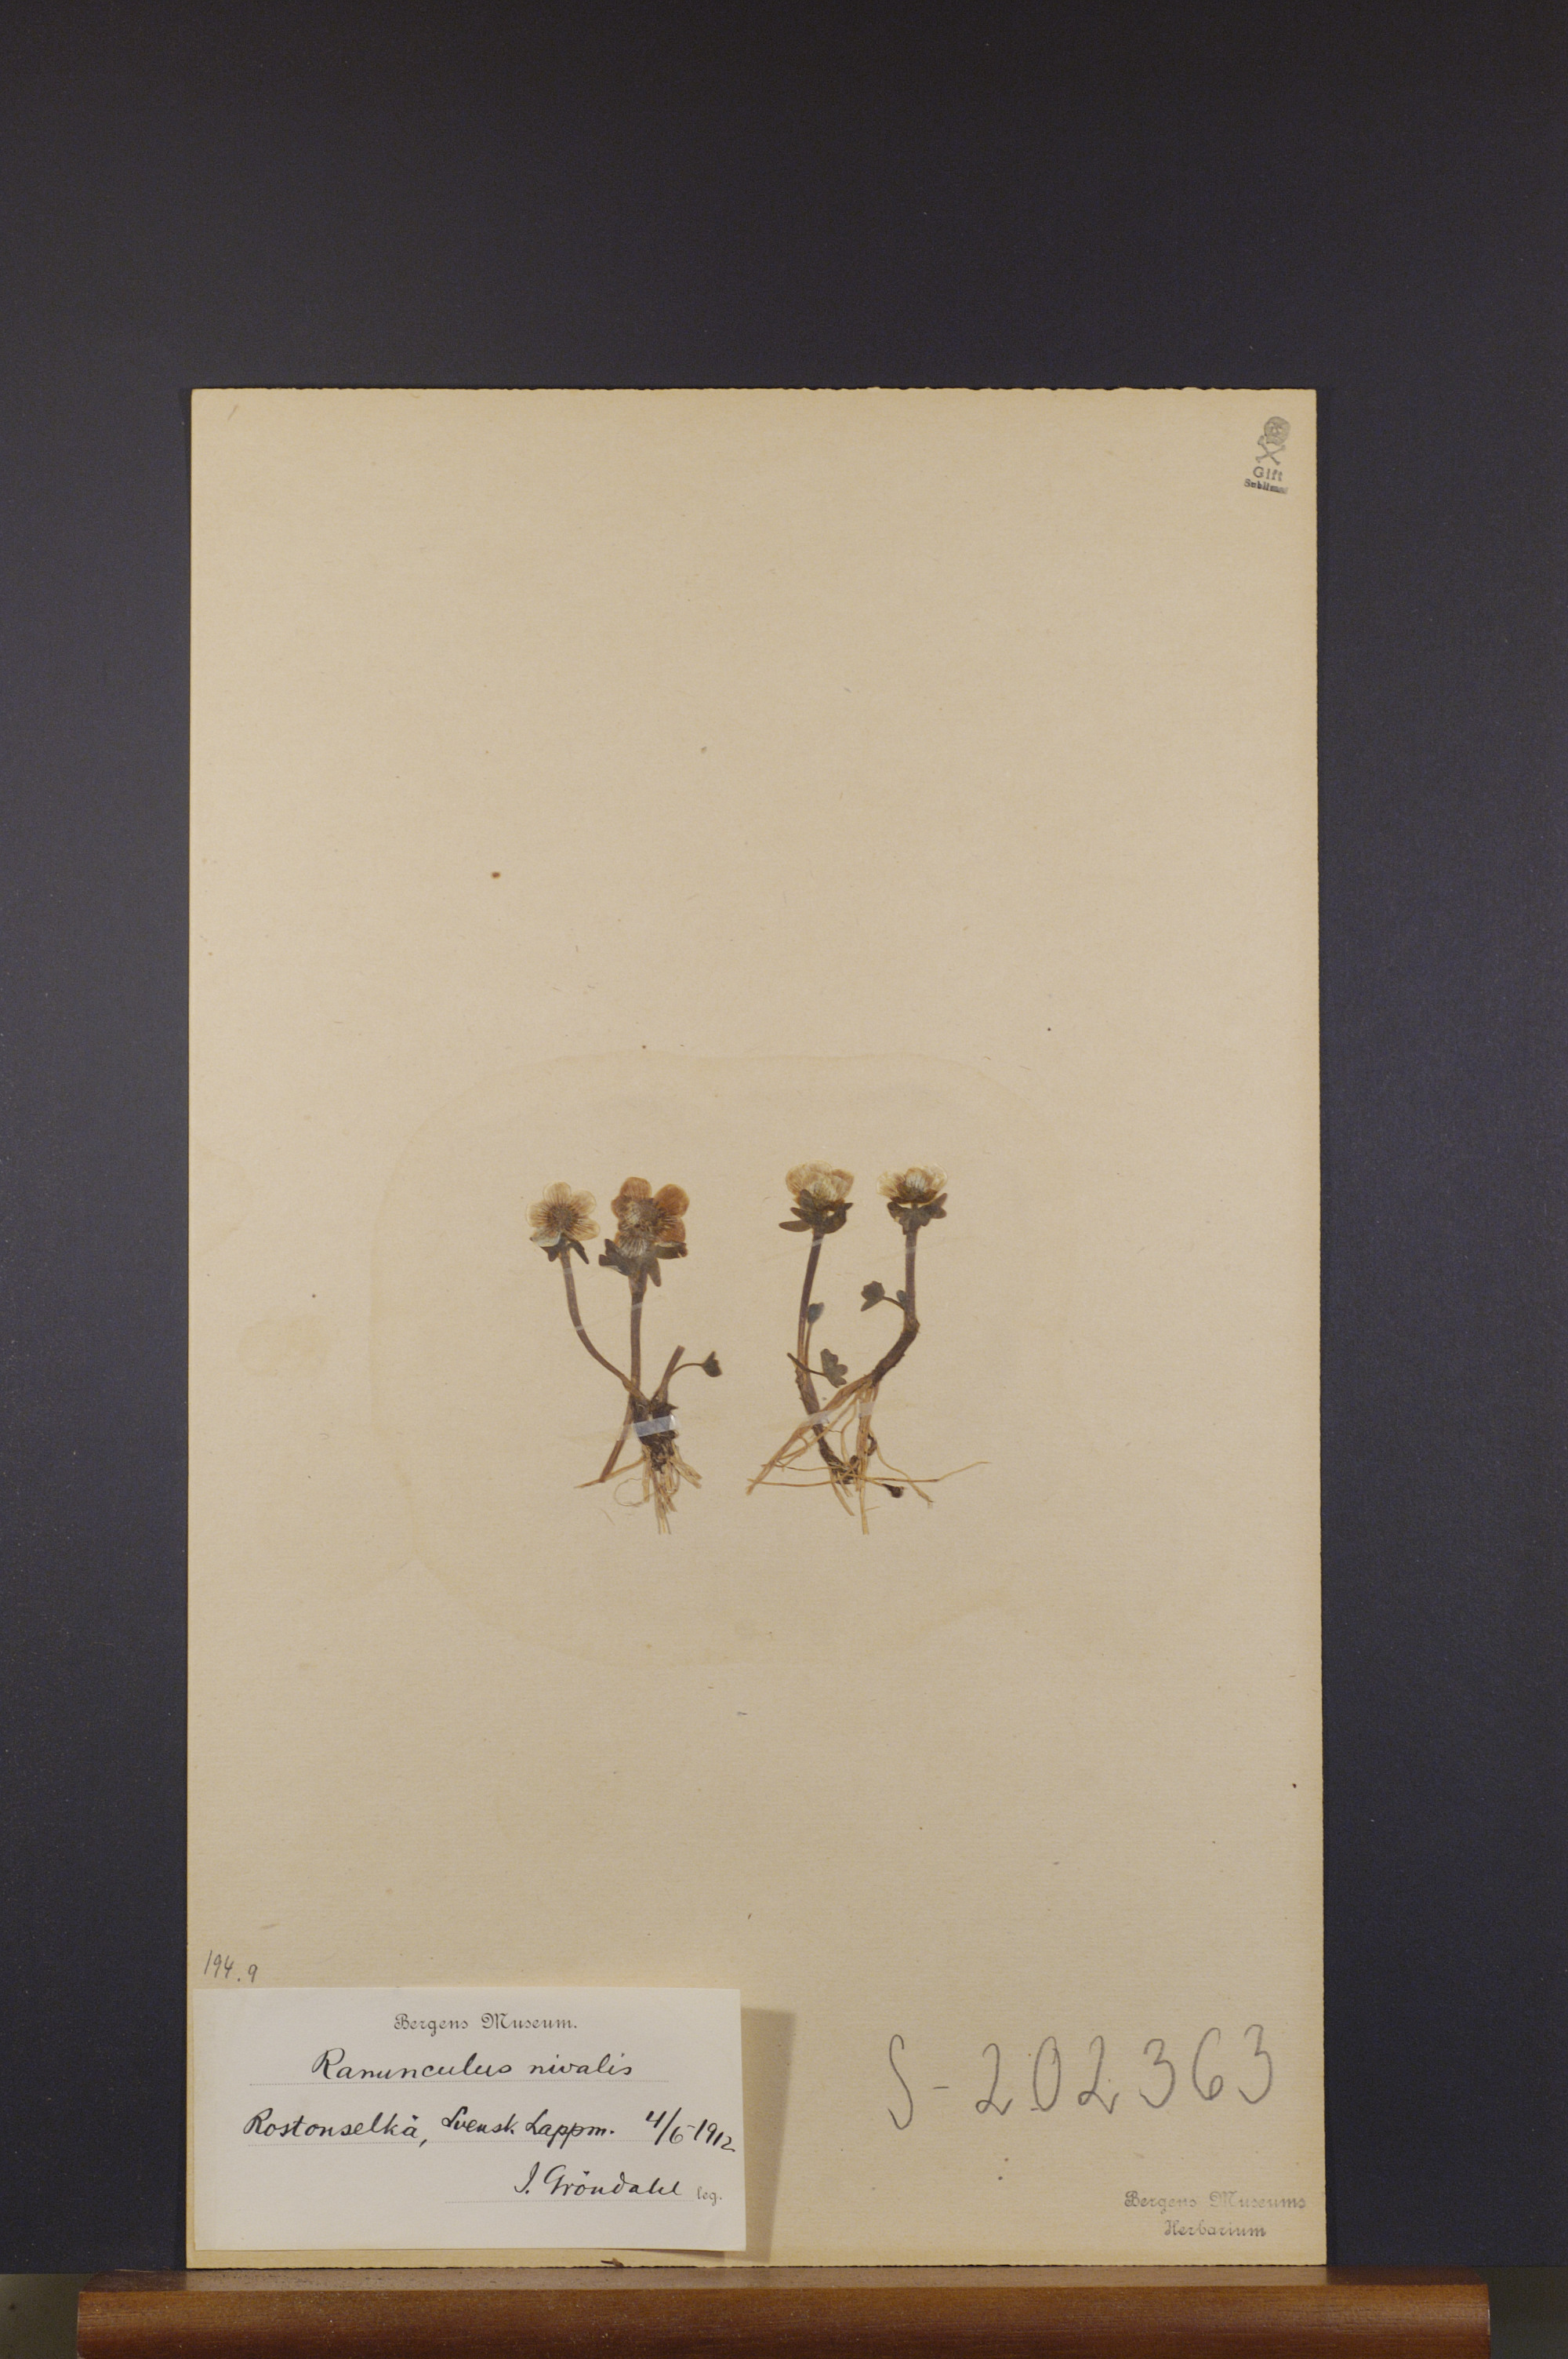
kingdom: Plantae
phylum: Tracheophyta
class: Magnoliopsida
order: Ranunculales
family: Ranunculaceae
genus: Ranunculus
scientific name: Ranunculus nivalis
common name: Snow buttercup
